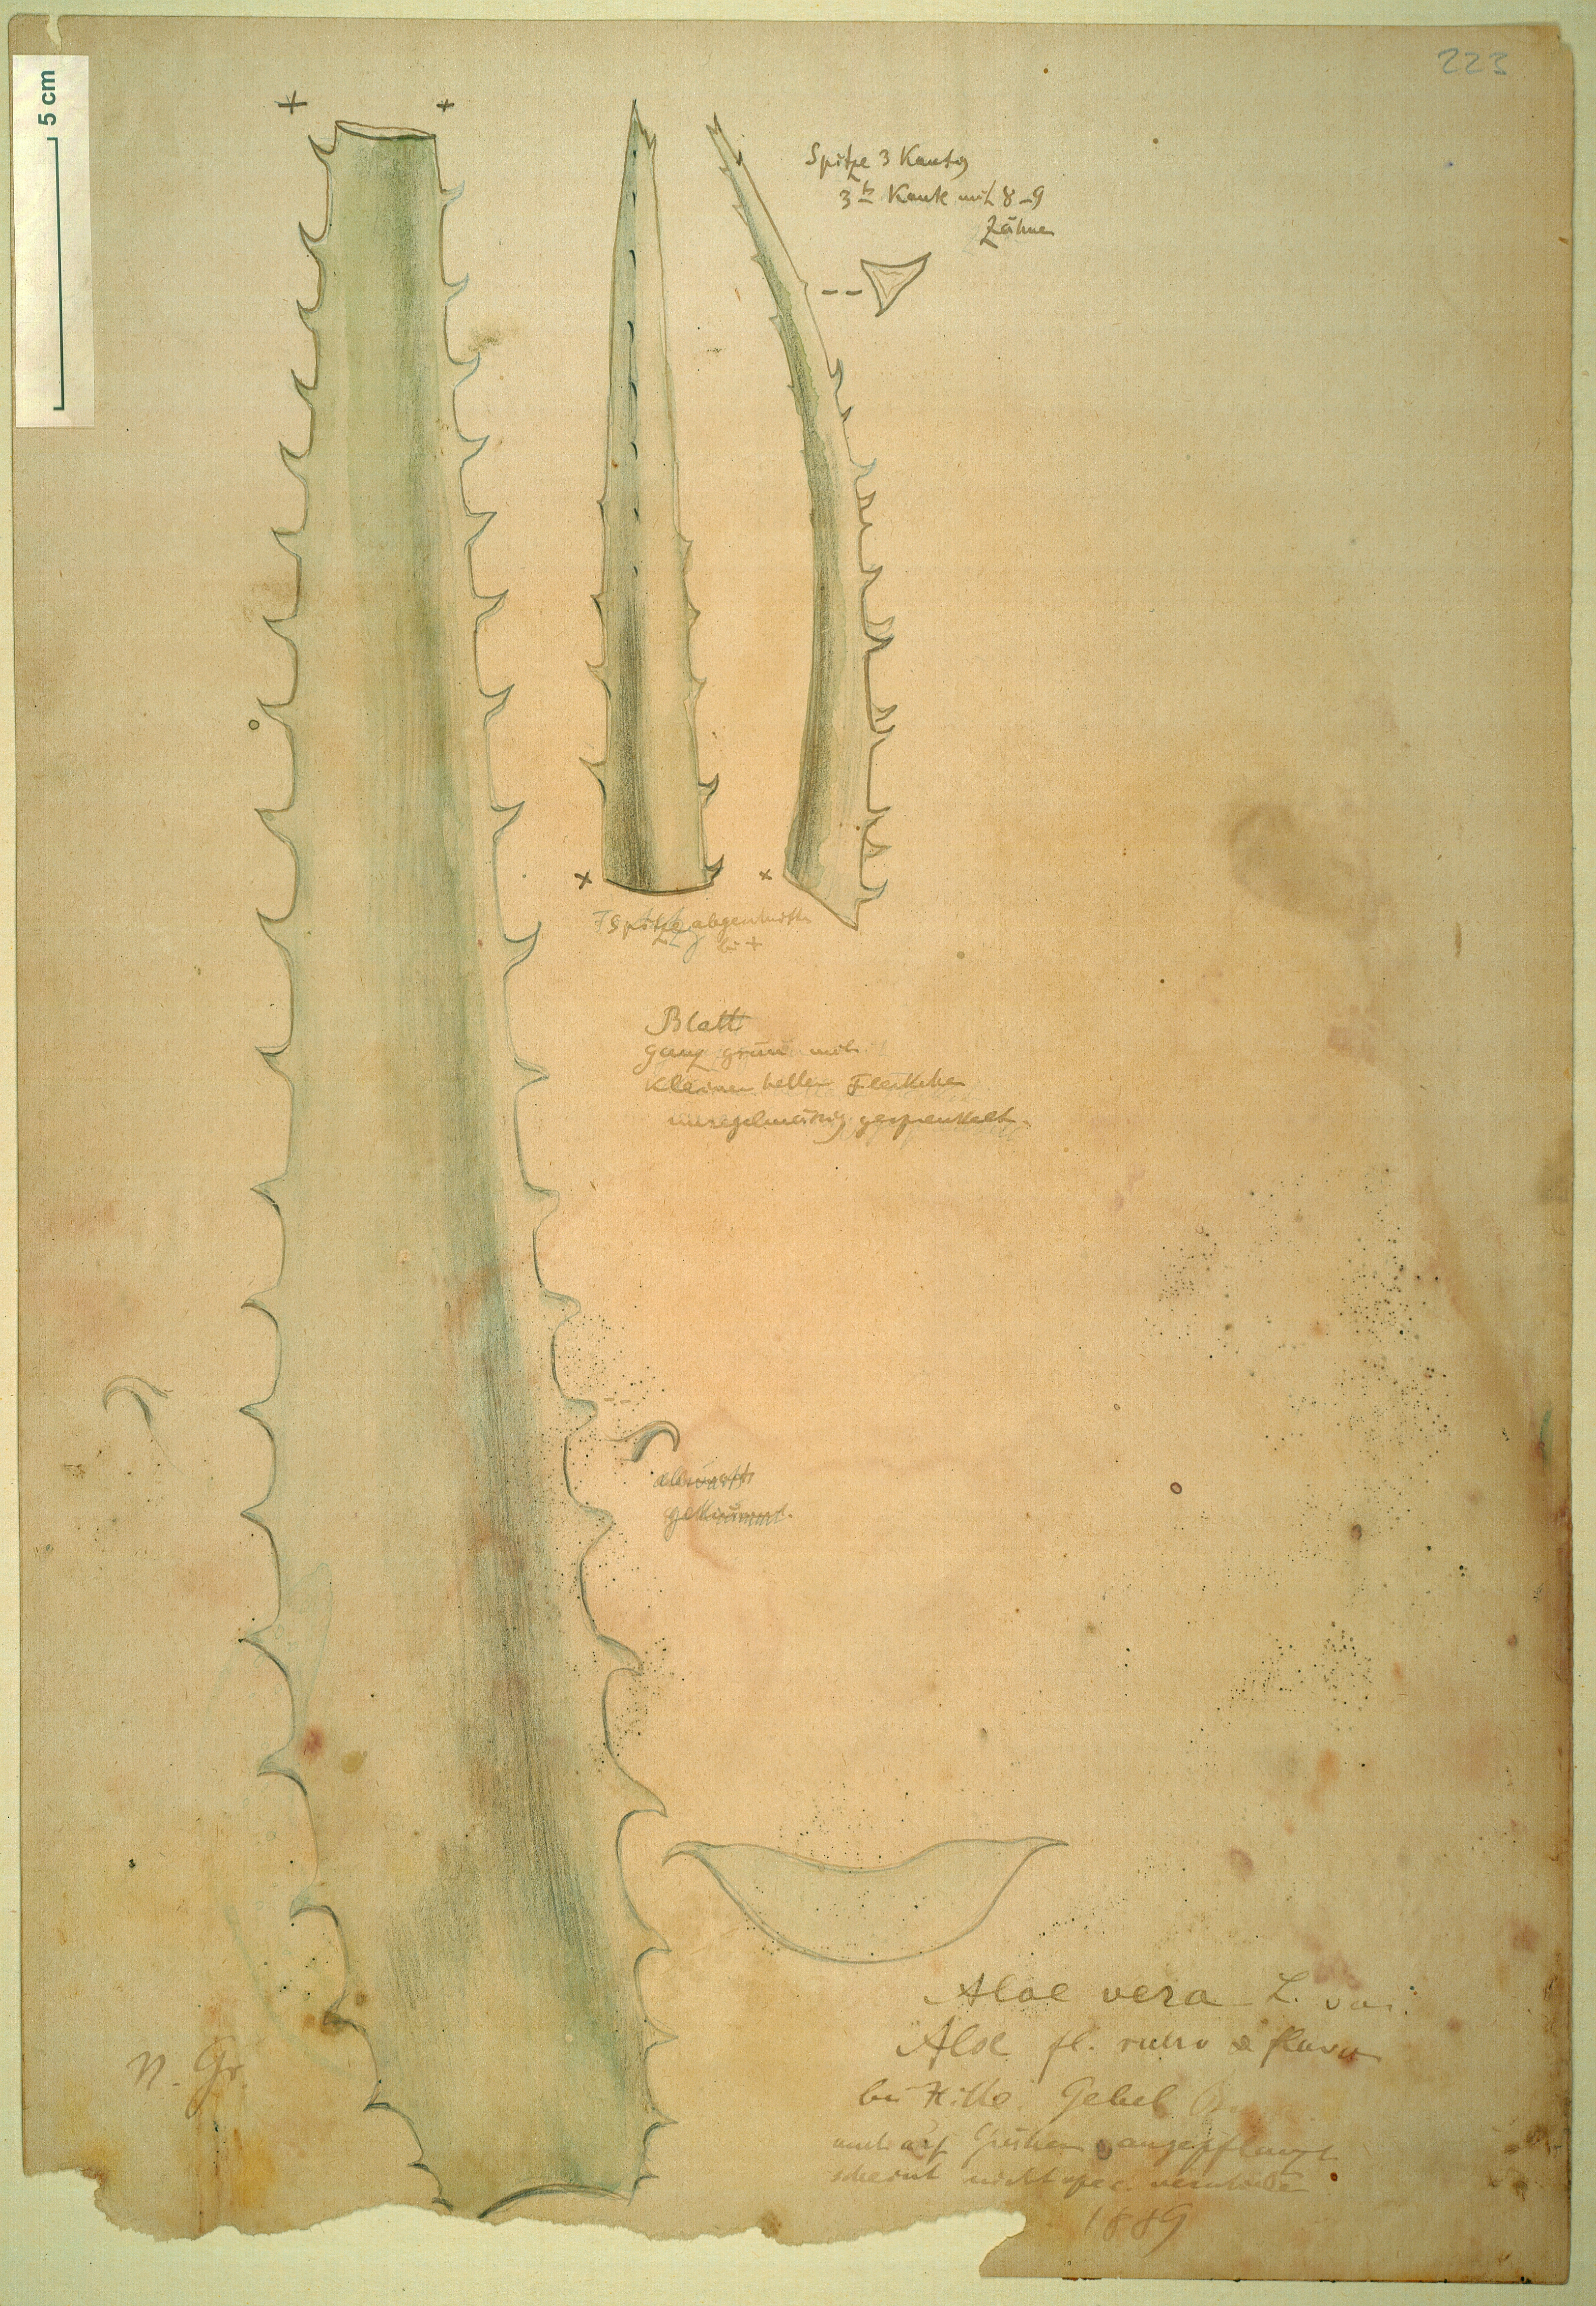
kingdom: Plantae
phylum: Tracheophyta
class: Liliopsida
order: Asparagales
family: Asphodelaceae
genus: Aloe
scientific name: Aloe vera
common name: Barbados aloe
